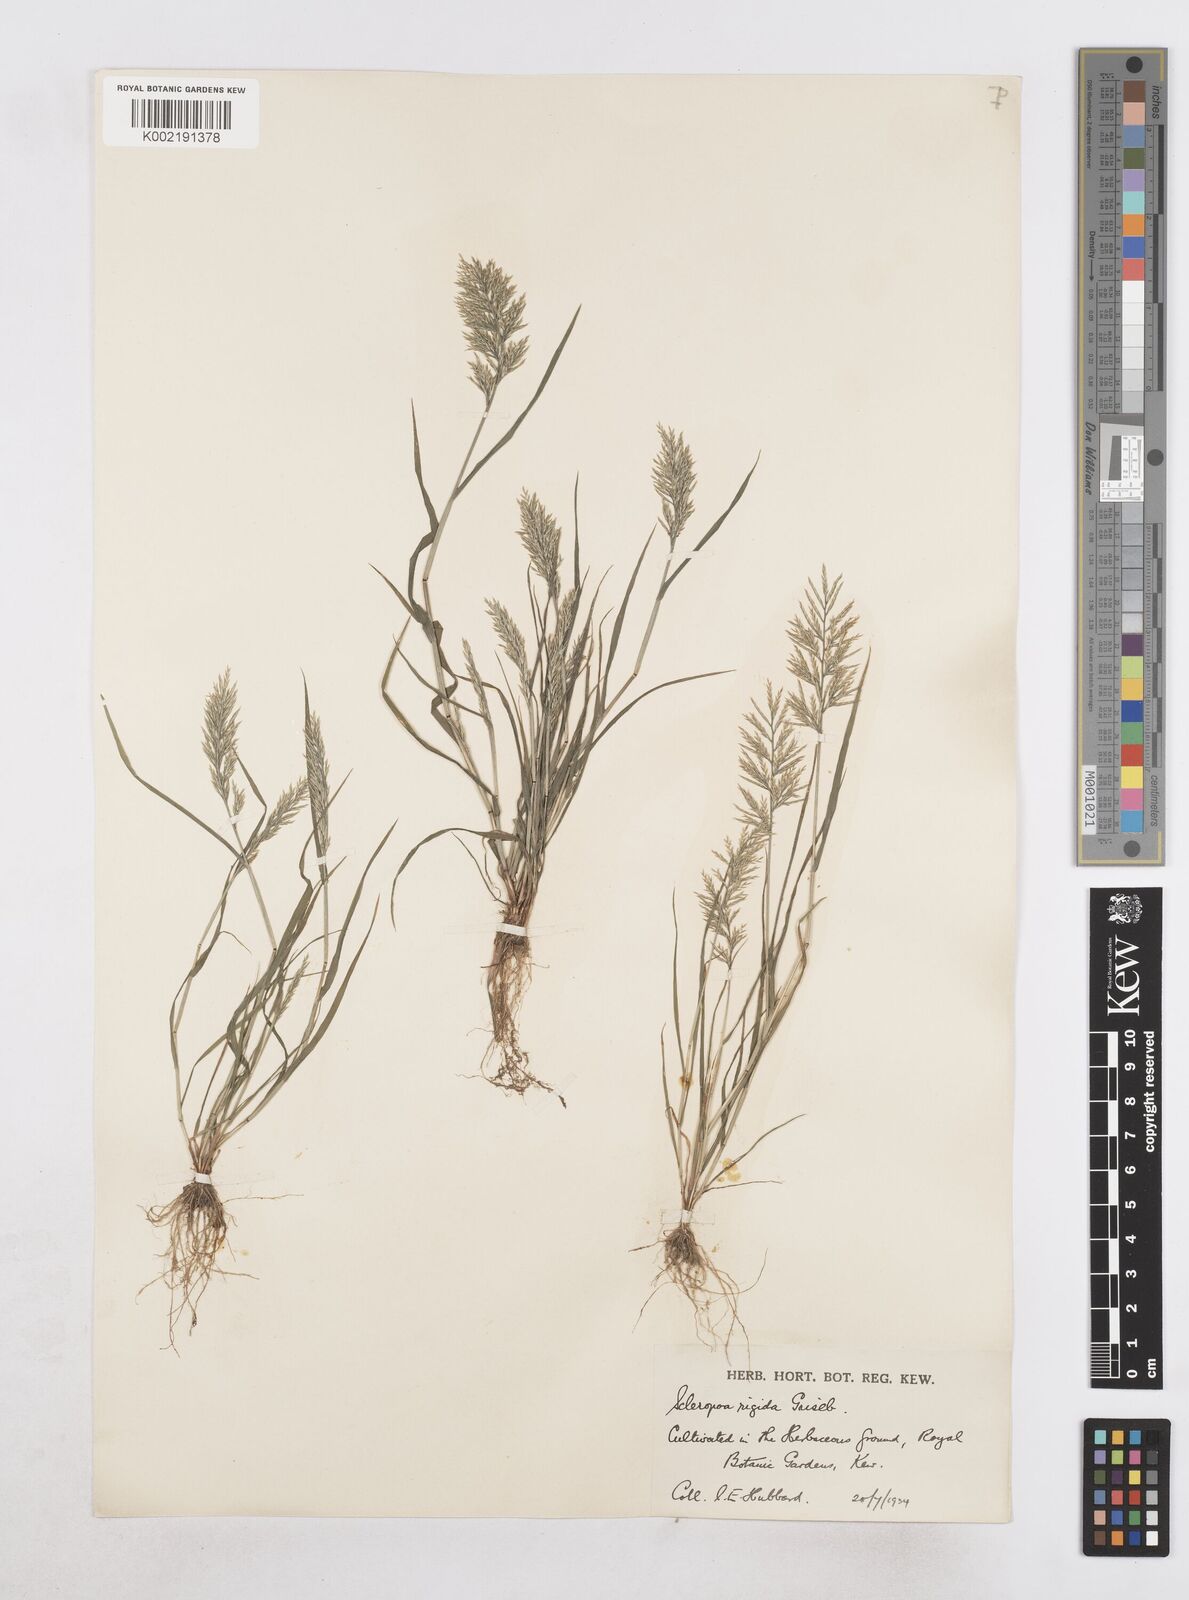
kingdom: Plantae
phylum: Tracheophyta
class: Liliopsida
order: Poales
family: Poaceae
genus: Catapodium
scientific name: Catapodium rigidum
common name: Fern-grass
